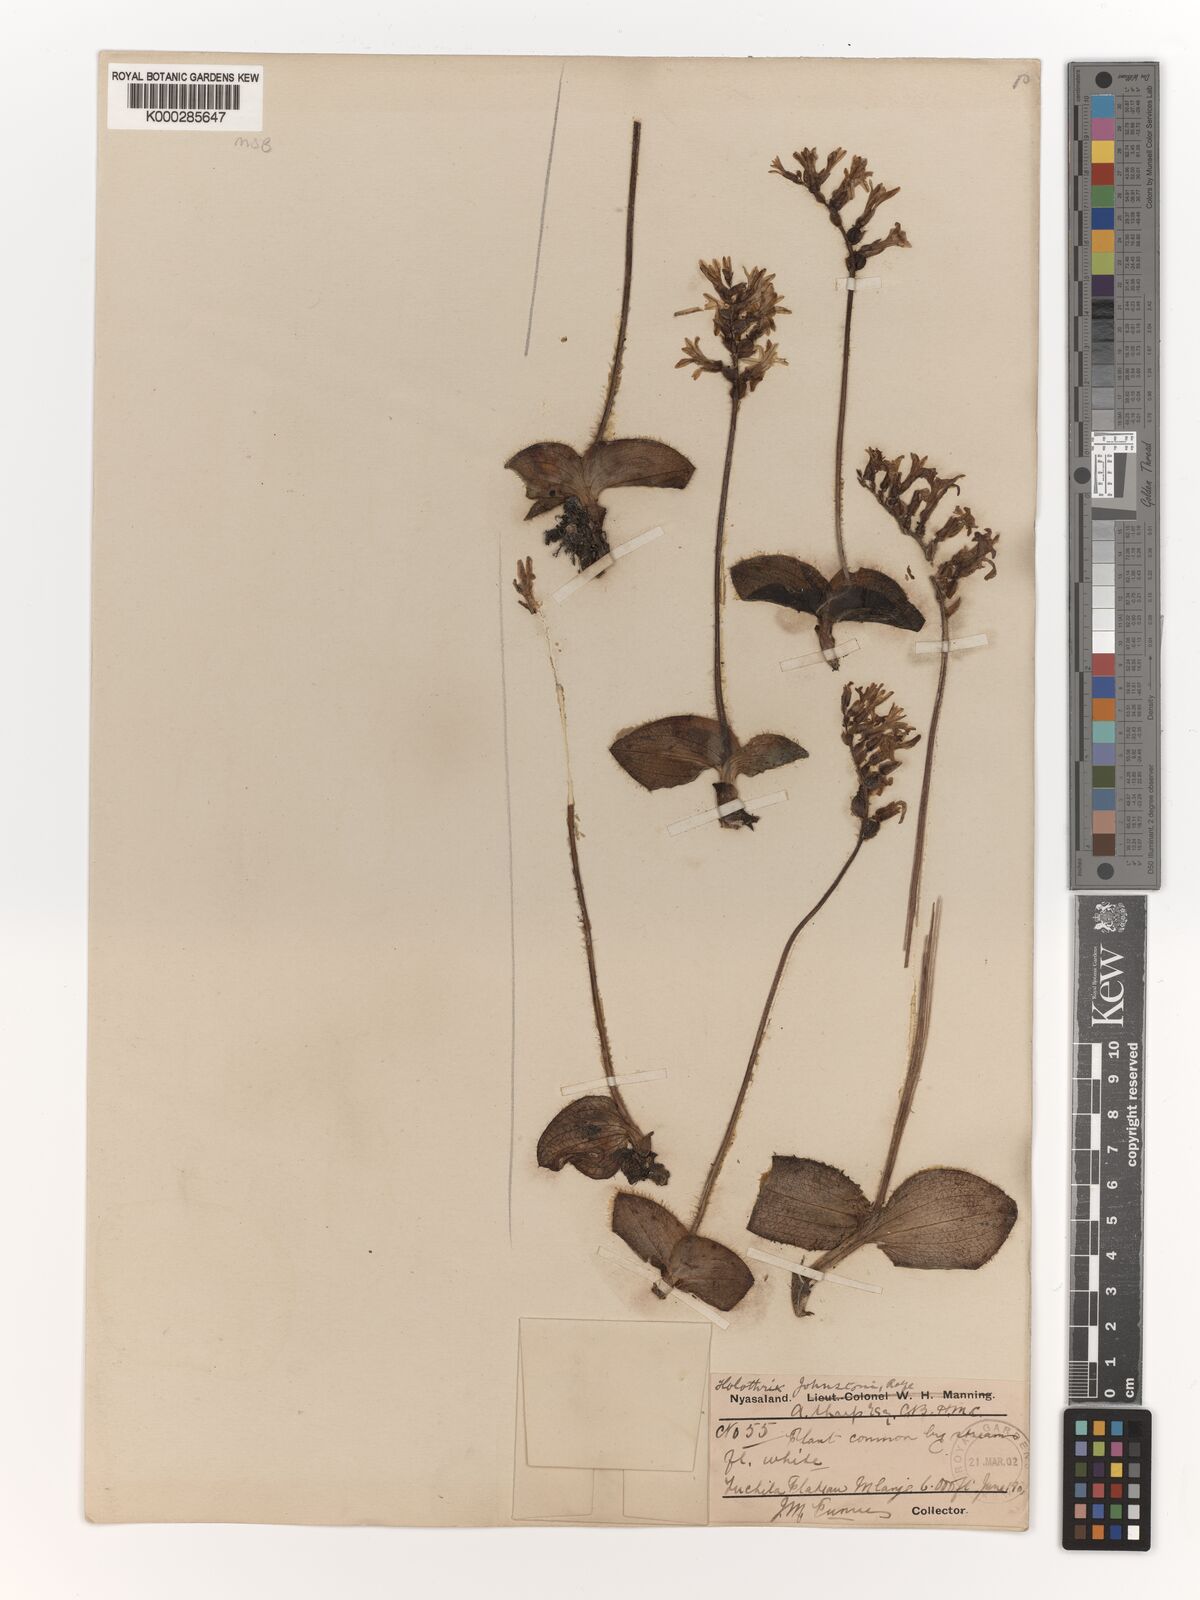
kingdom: Plantae
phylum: Tracheophyta
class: Liliopsida
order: Asparagales
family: Orchidaceae
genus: Holothrix
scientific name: Holothrix johnstonii
